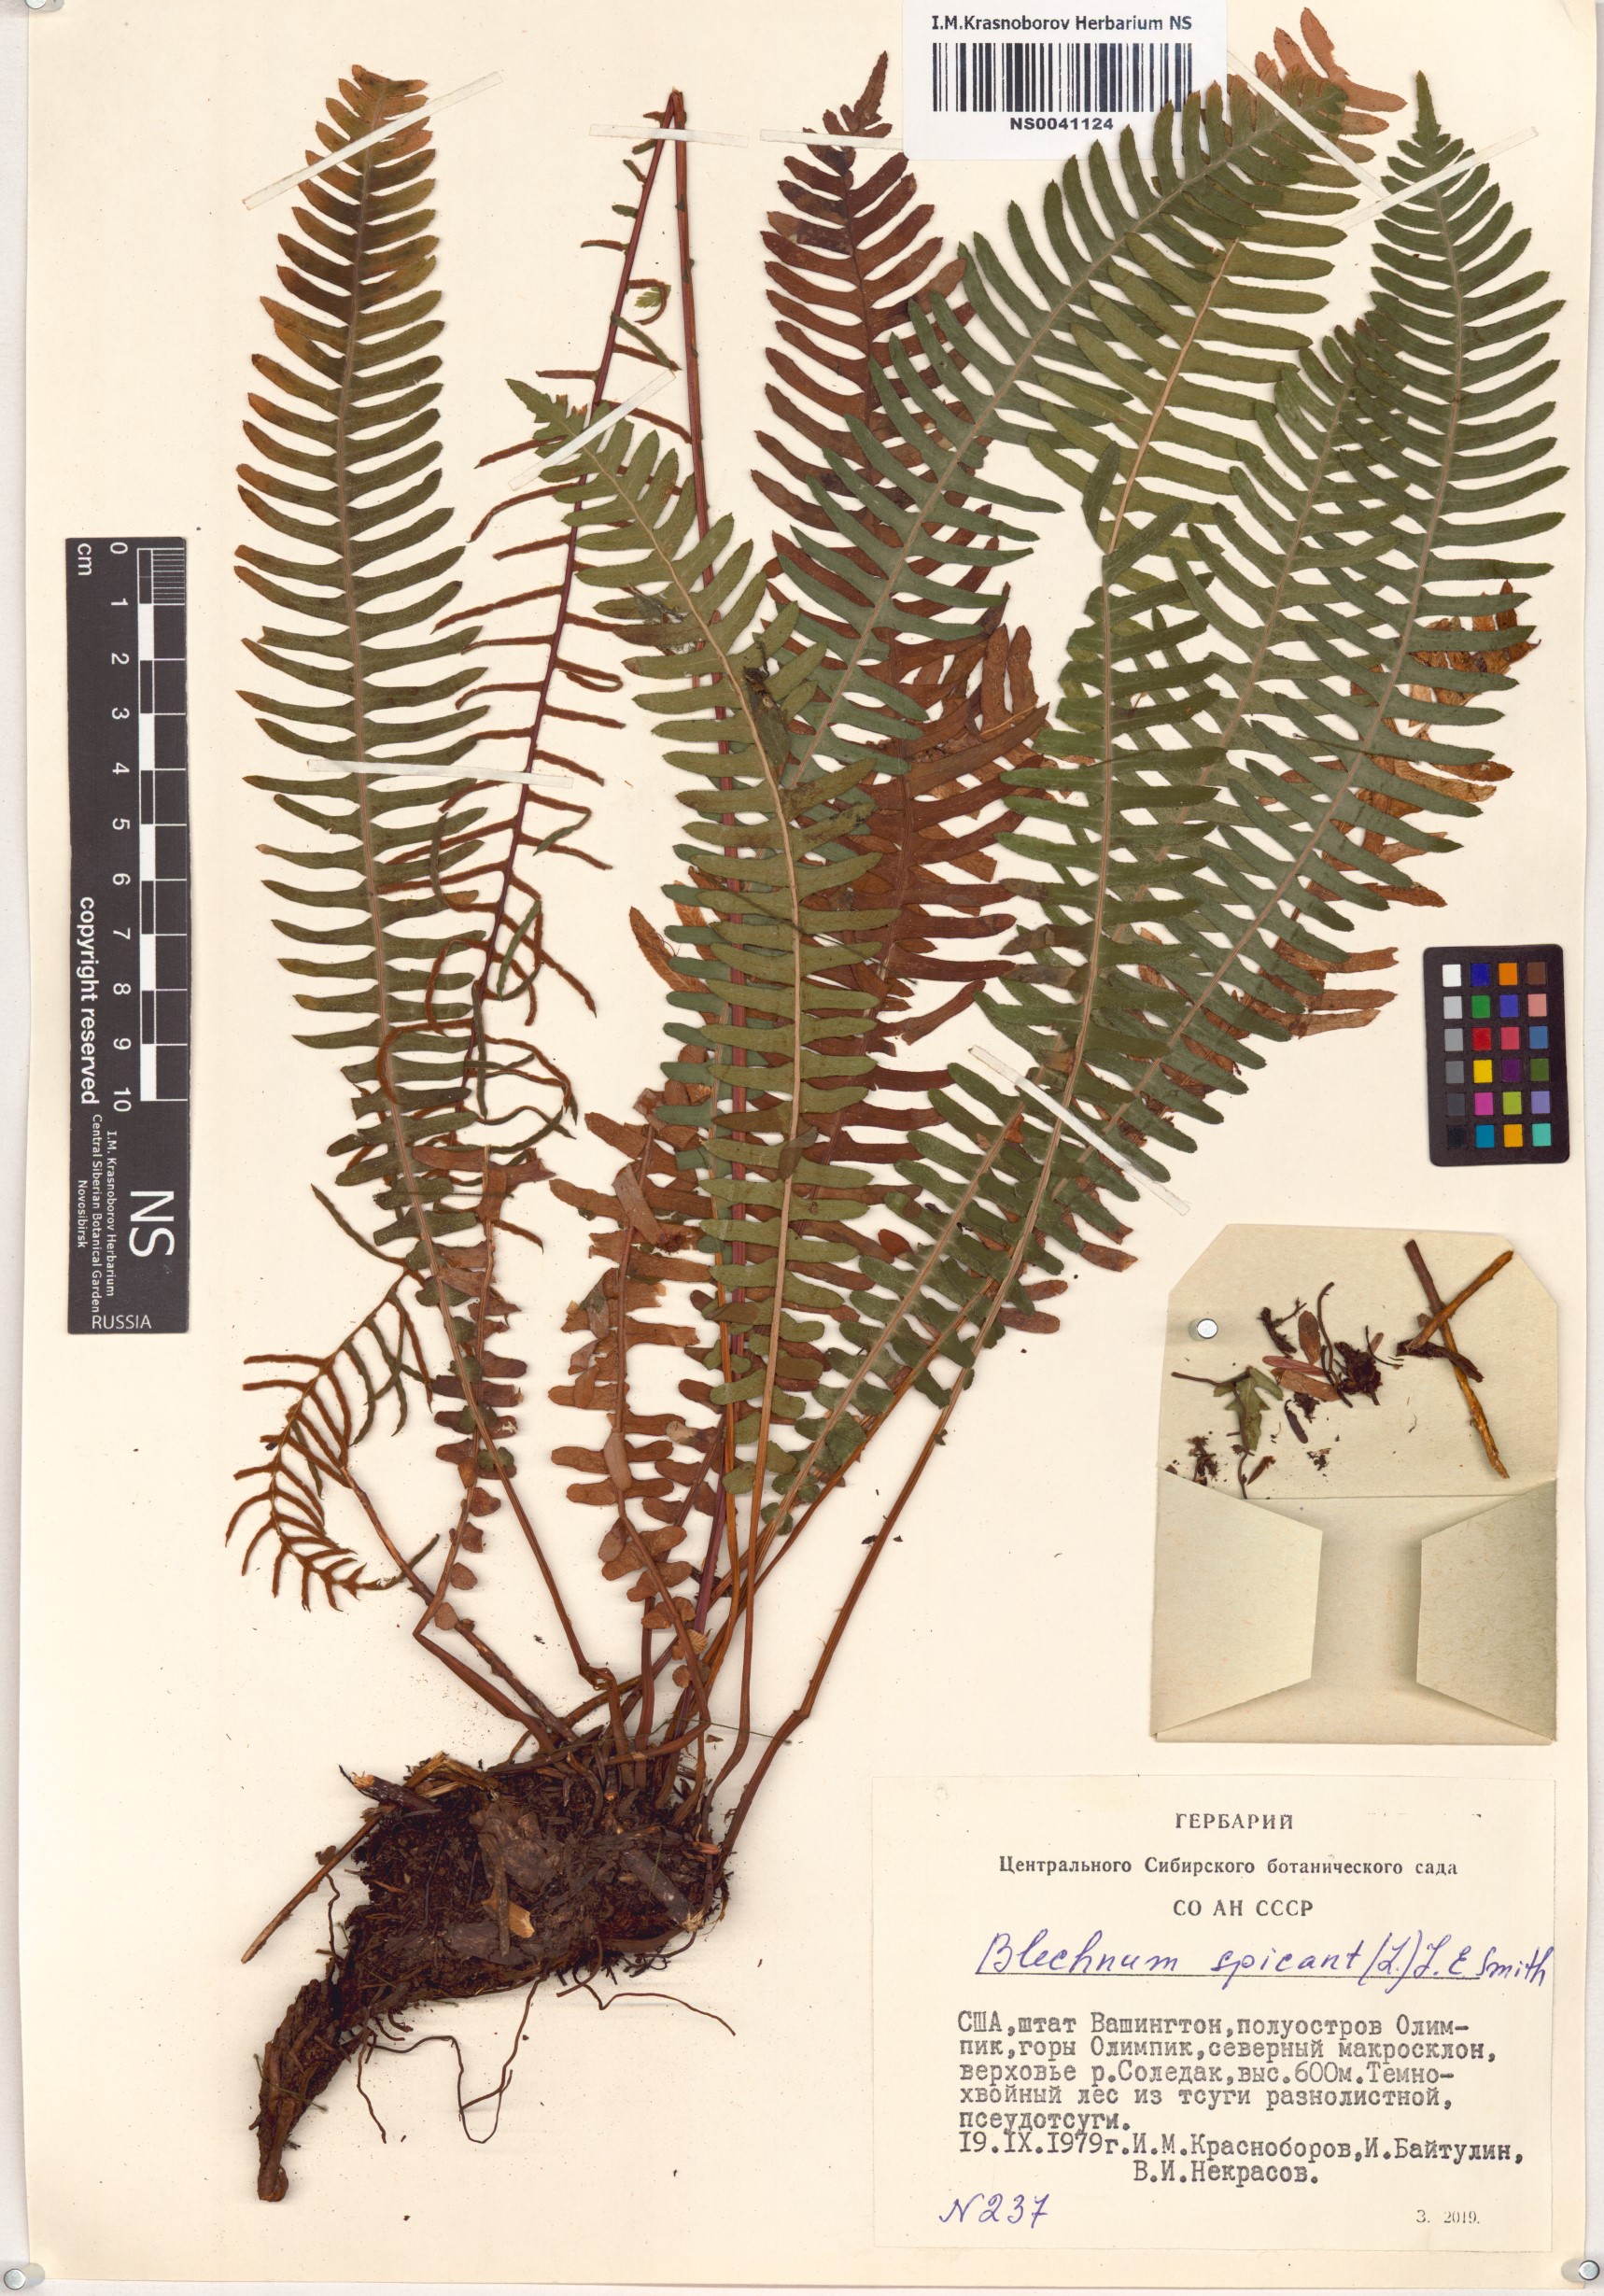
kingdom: Plantae
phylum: Tracheophyta
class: Polypodiopsida
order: Polypodiales
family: Blechnaceae
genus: Struthiopteris
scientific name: Struthiopteris spicant
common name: Deer fern
